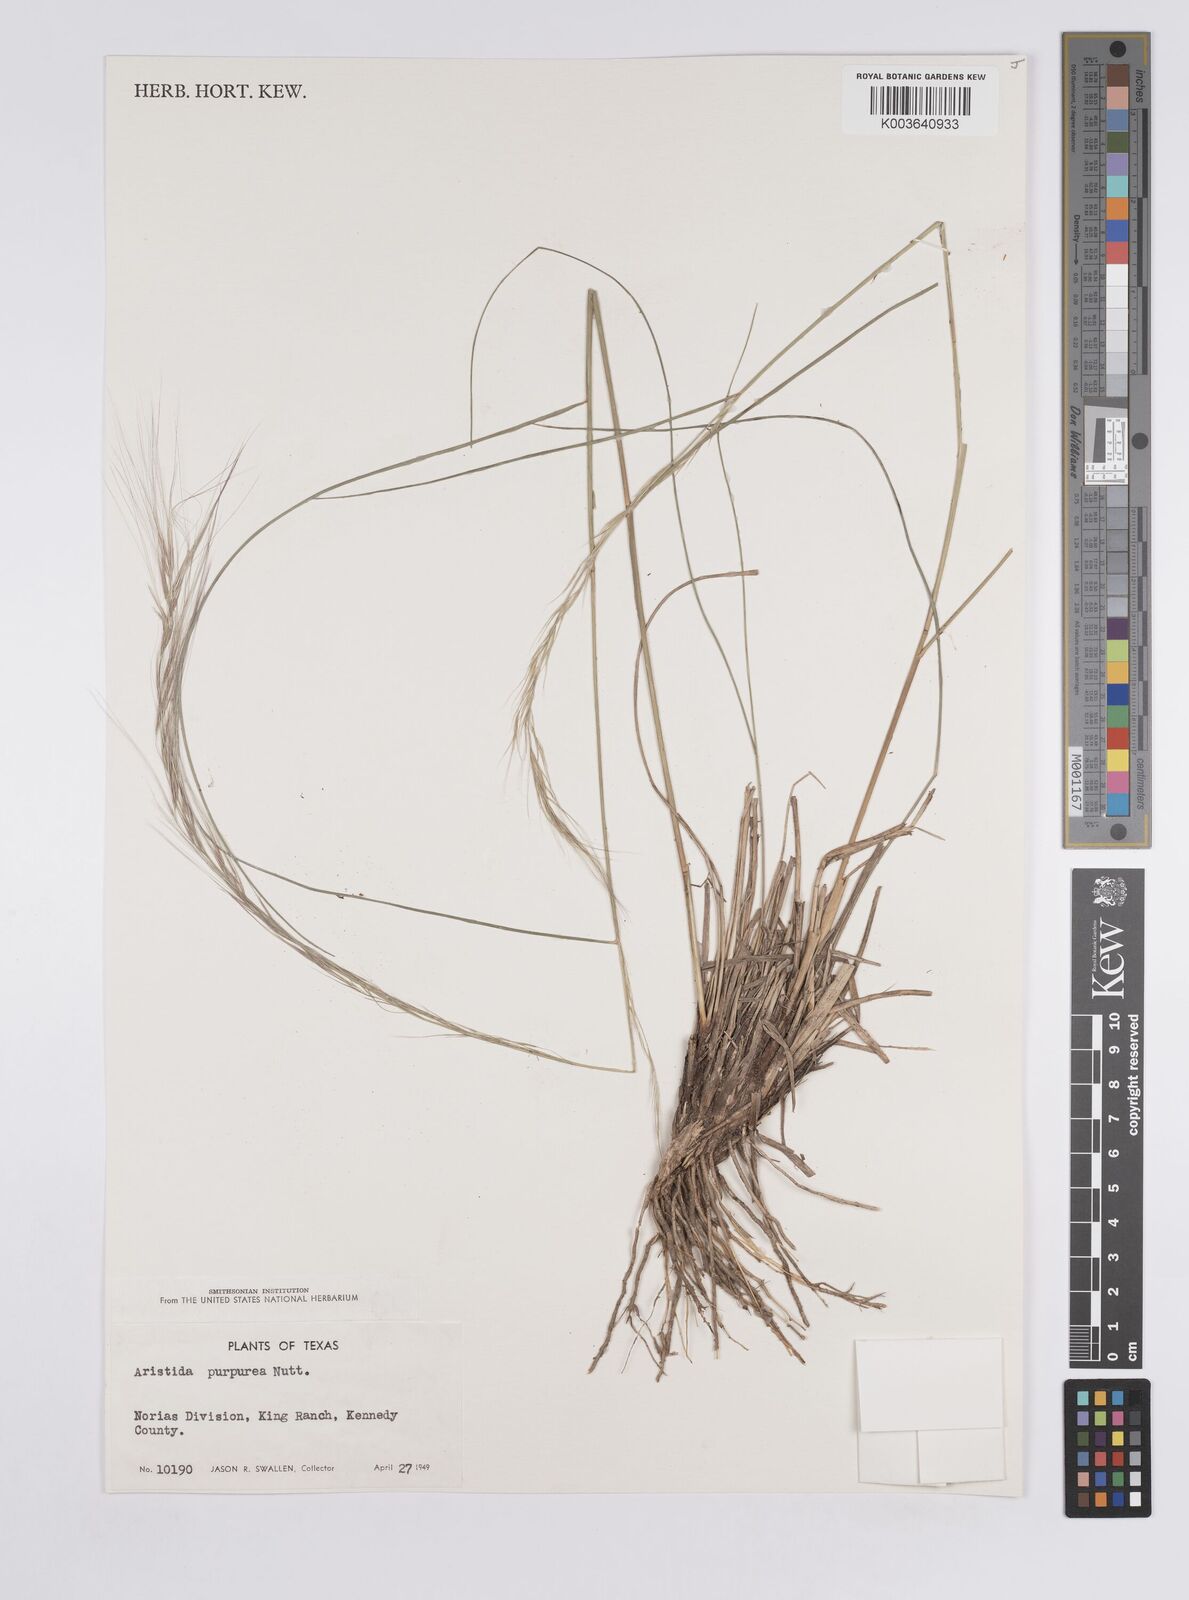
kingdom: Plantae
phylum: Tracheophyta
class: Liliopsida
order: Poales
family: Poaceae
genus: Aristida
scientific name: Aristida purpurea
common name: Purple threeawn
